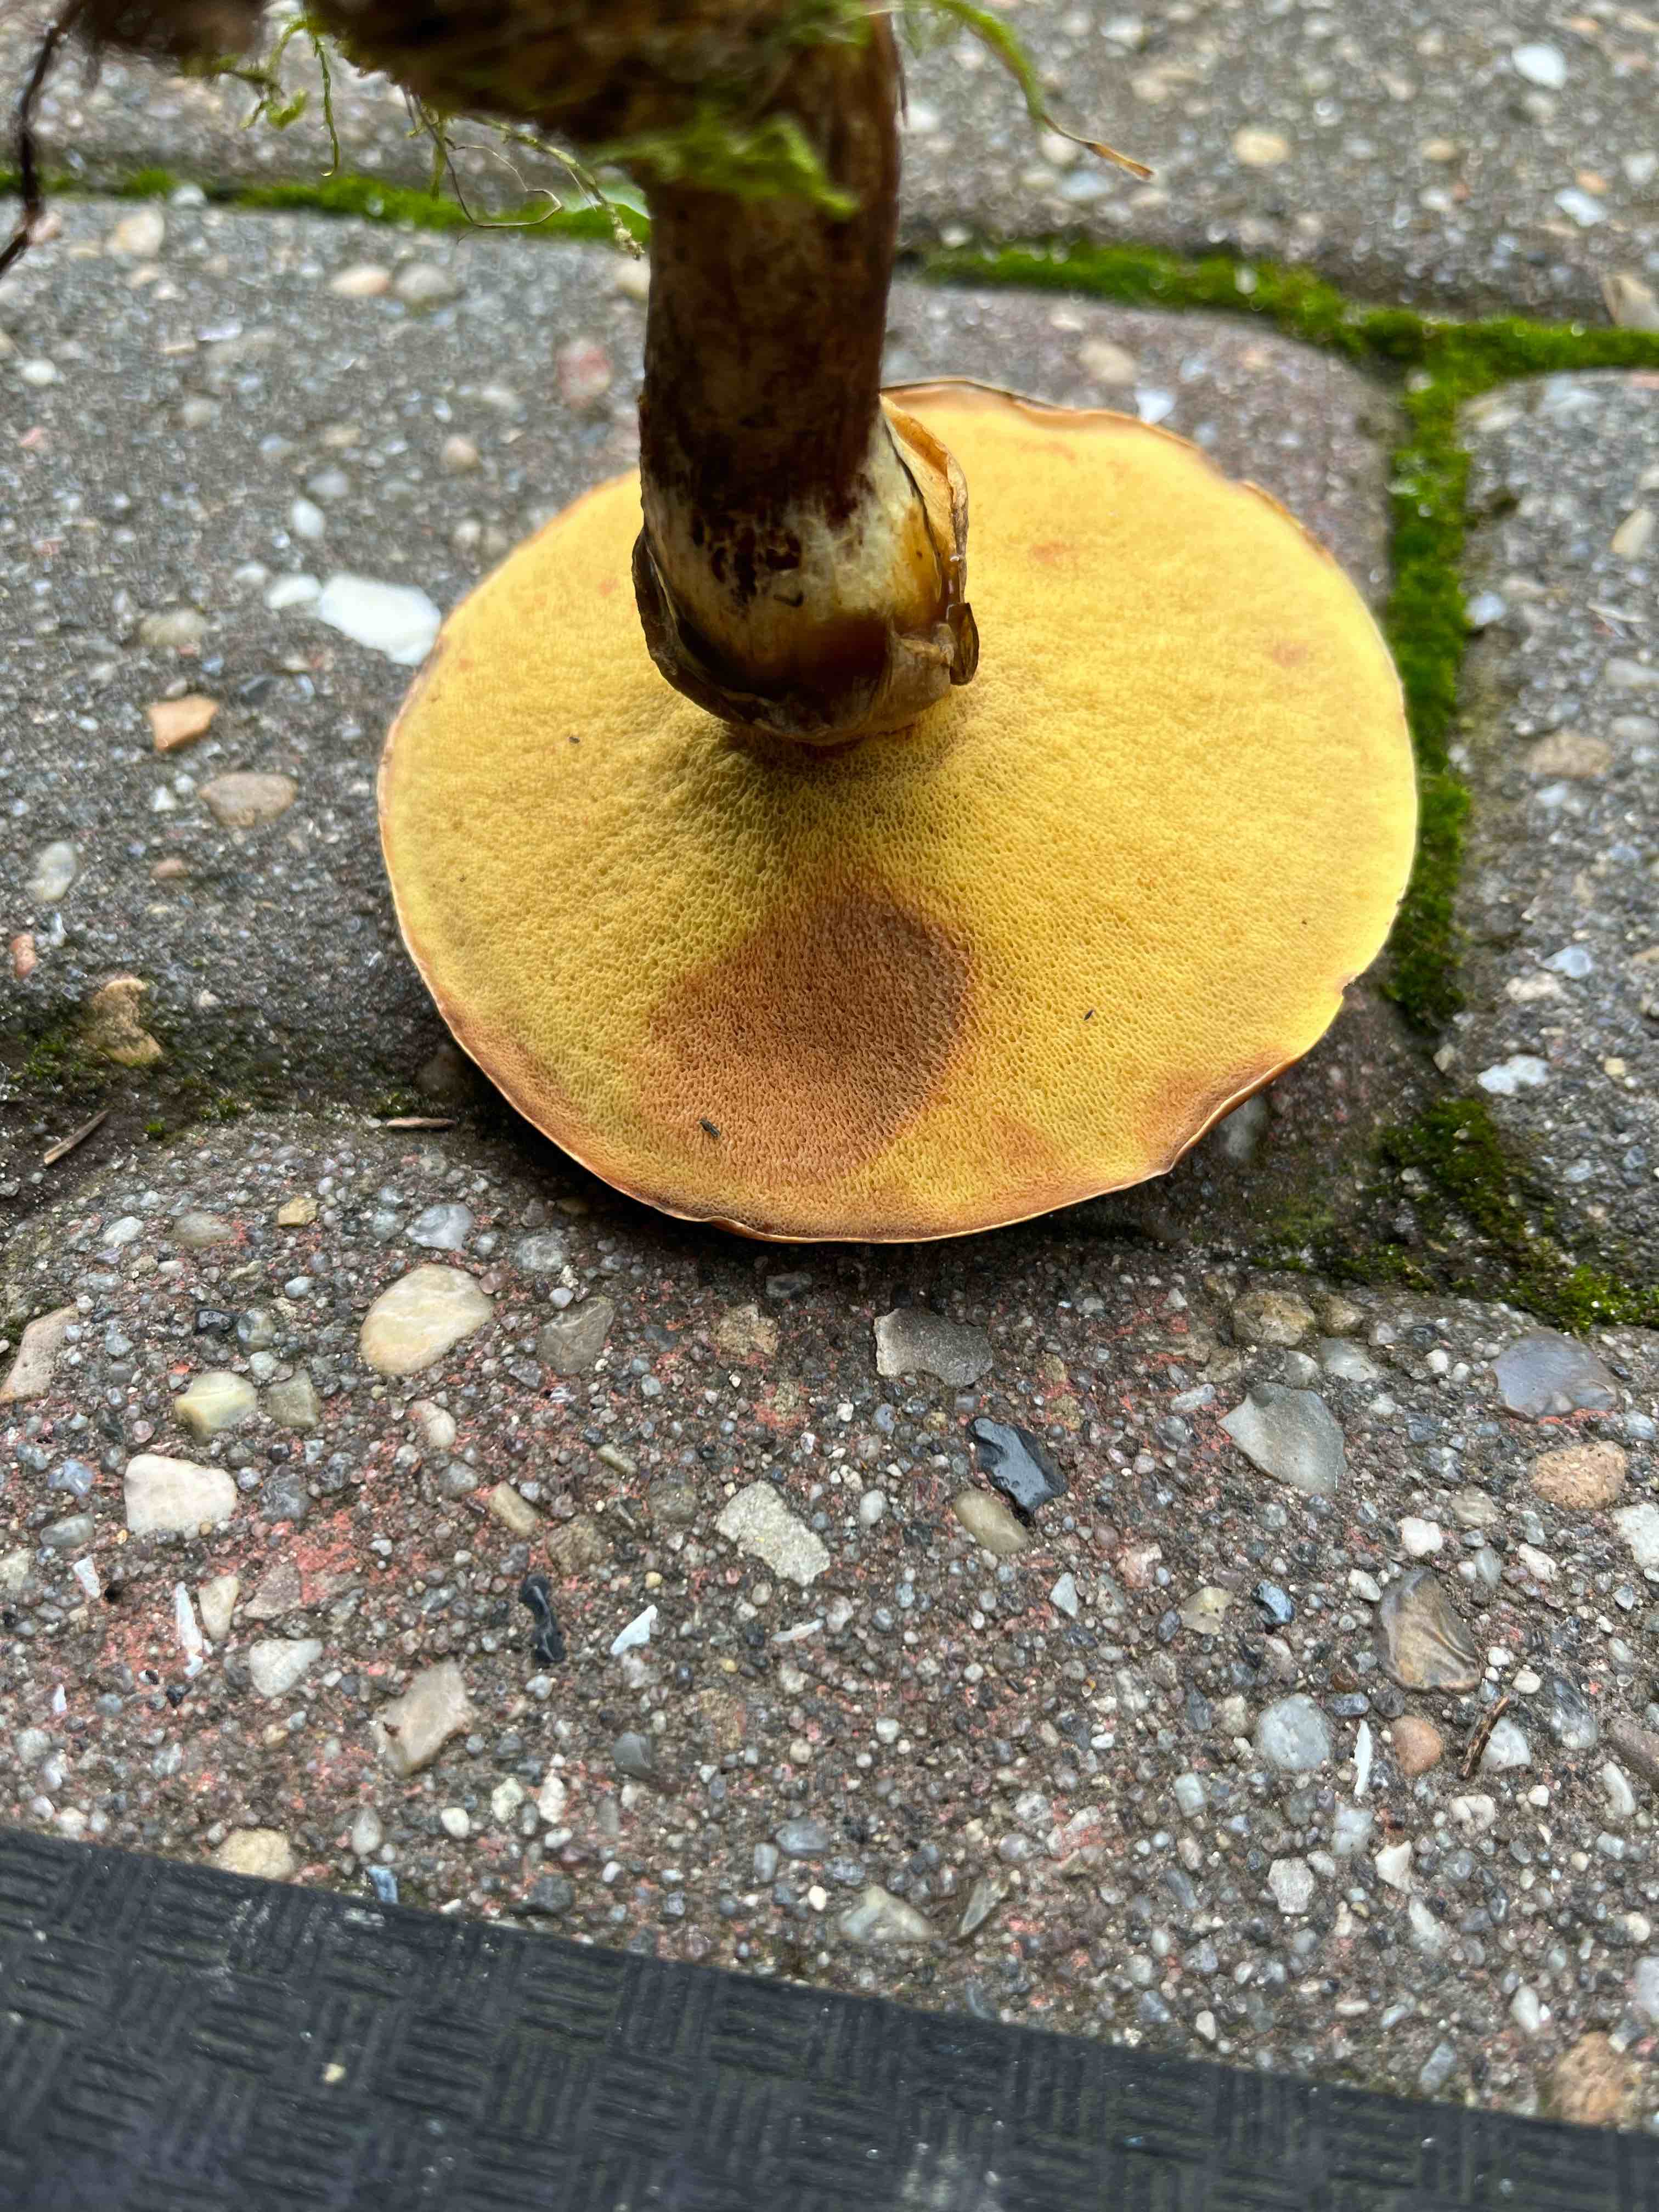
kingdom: Fungi
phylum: Basidiomycota
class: Agaricomycetes
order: Boletales
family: Suillaceae
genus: Suillus
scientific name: Suillus grevillei
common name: lærke-slimrørhat
